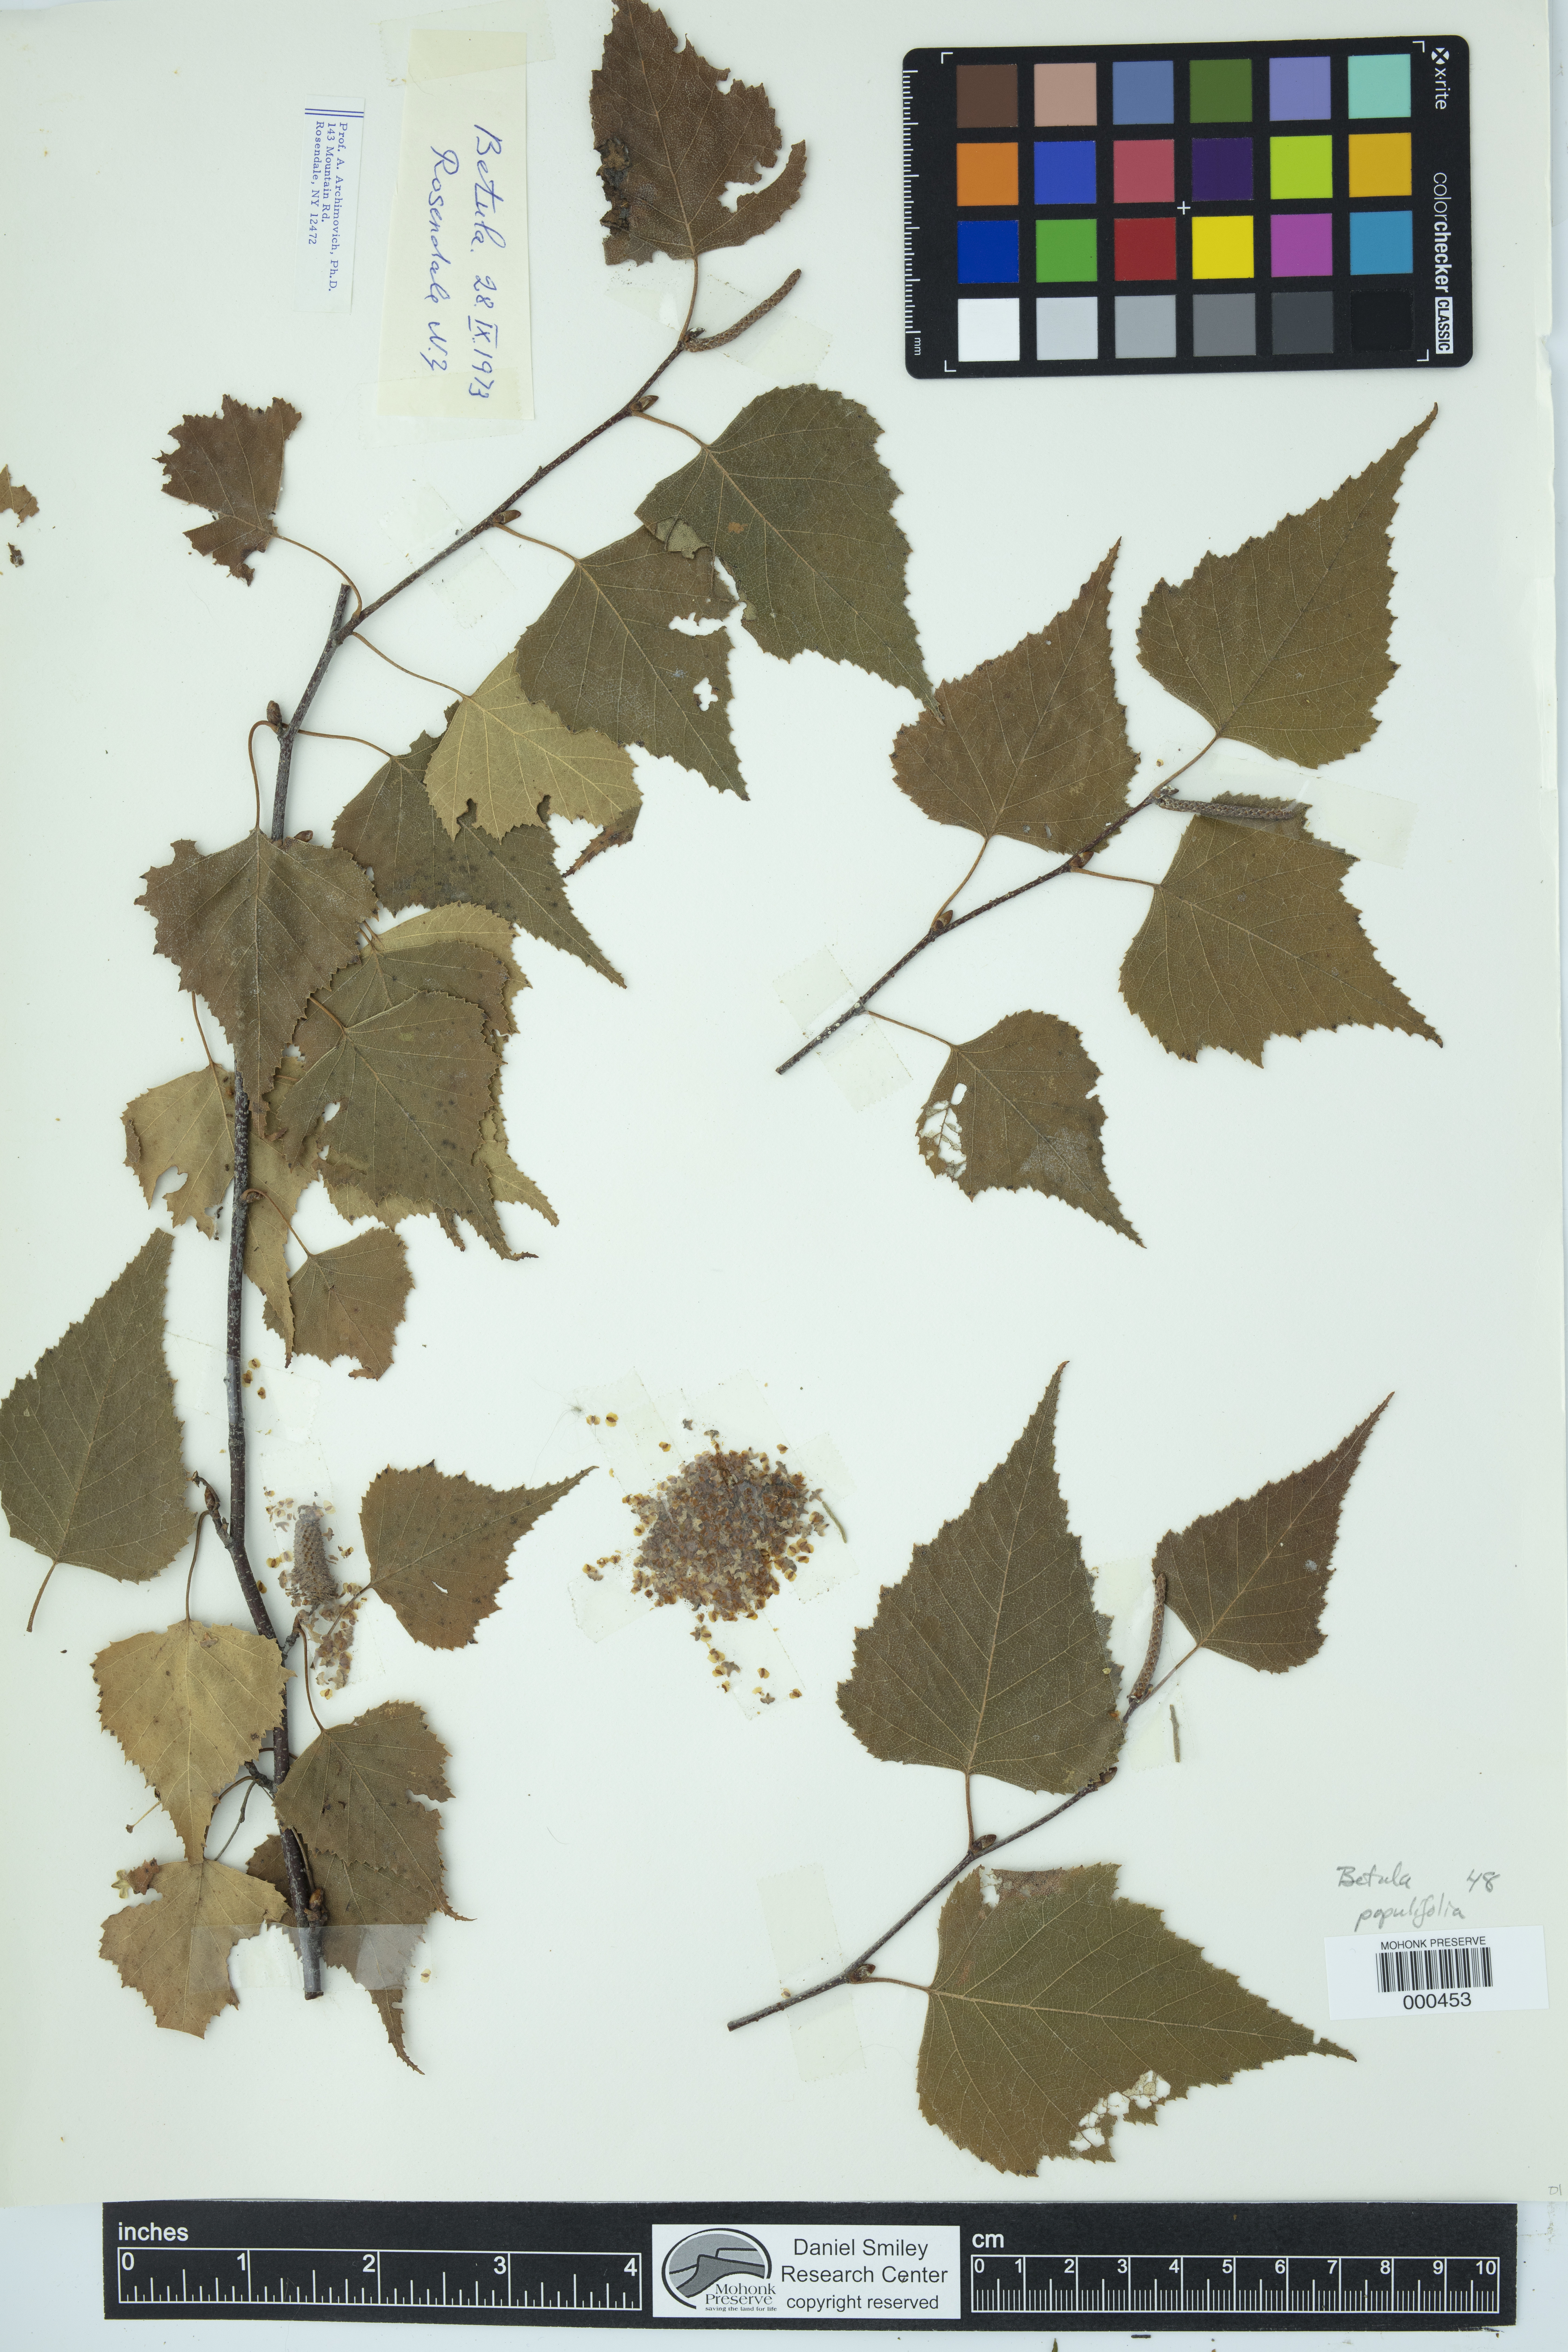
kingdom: Plantae
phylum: Tracheophyta
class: Magnoliopsida
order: Fagales
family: Betulaceae
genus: Betula
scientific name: Betula populifolia
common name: Fire birch
